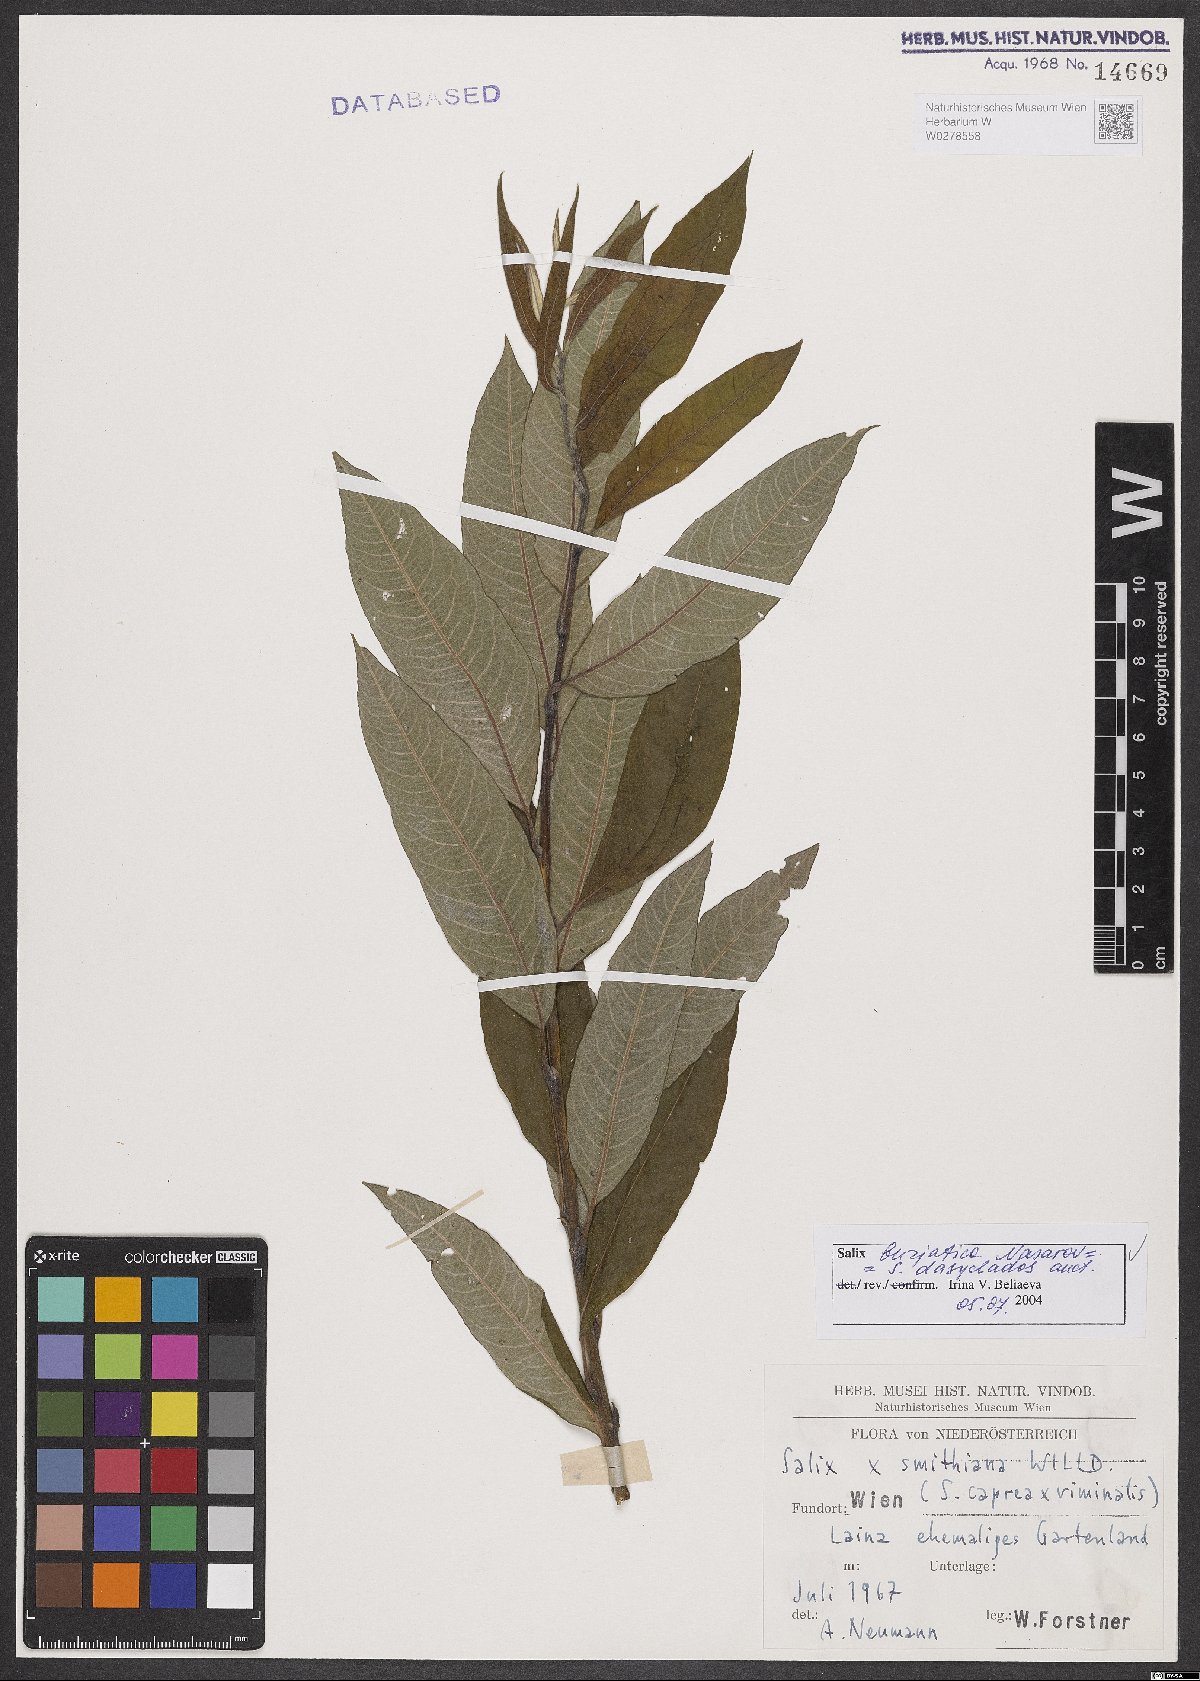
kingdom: Plantae
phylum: Tracheophyta
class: Magnoliopsida
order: Malpighiales
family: Salicaceae
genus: Salix
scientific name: Salix gmelinii
